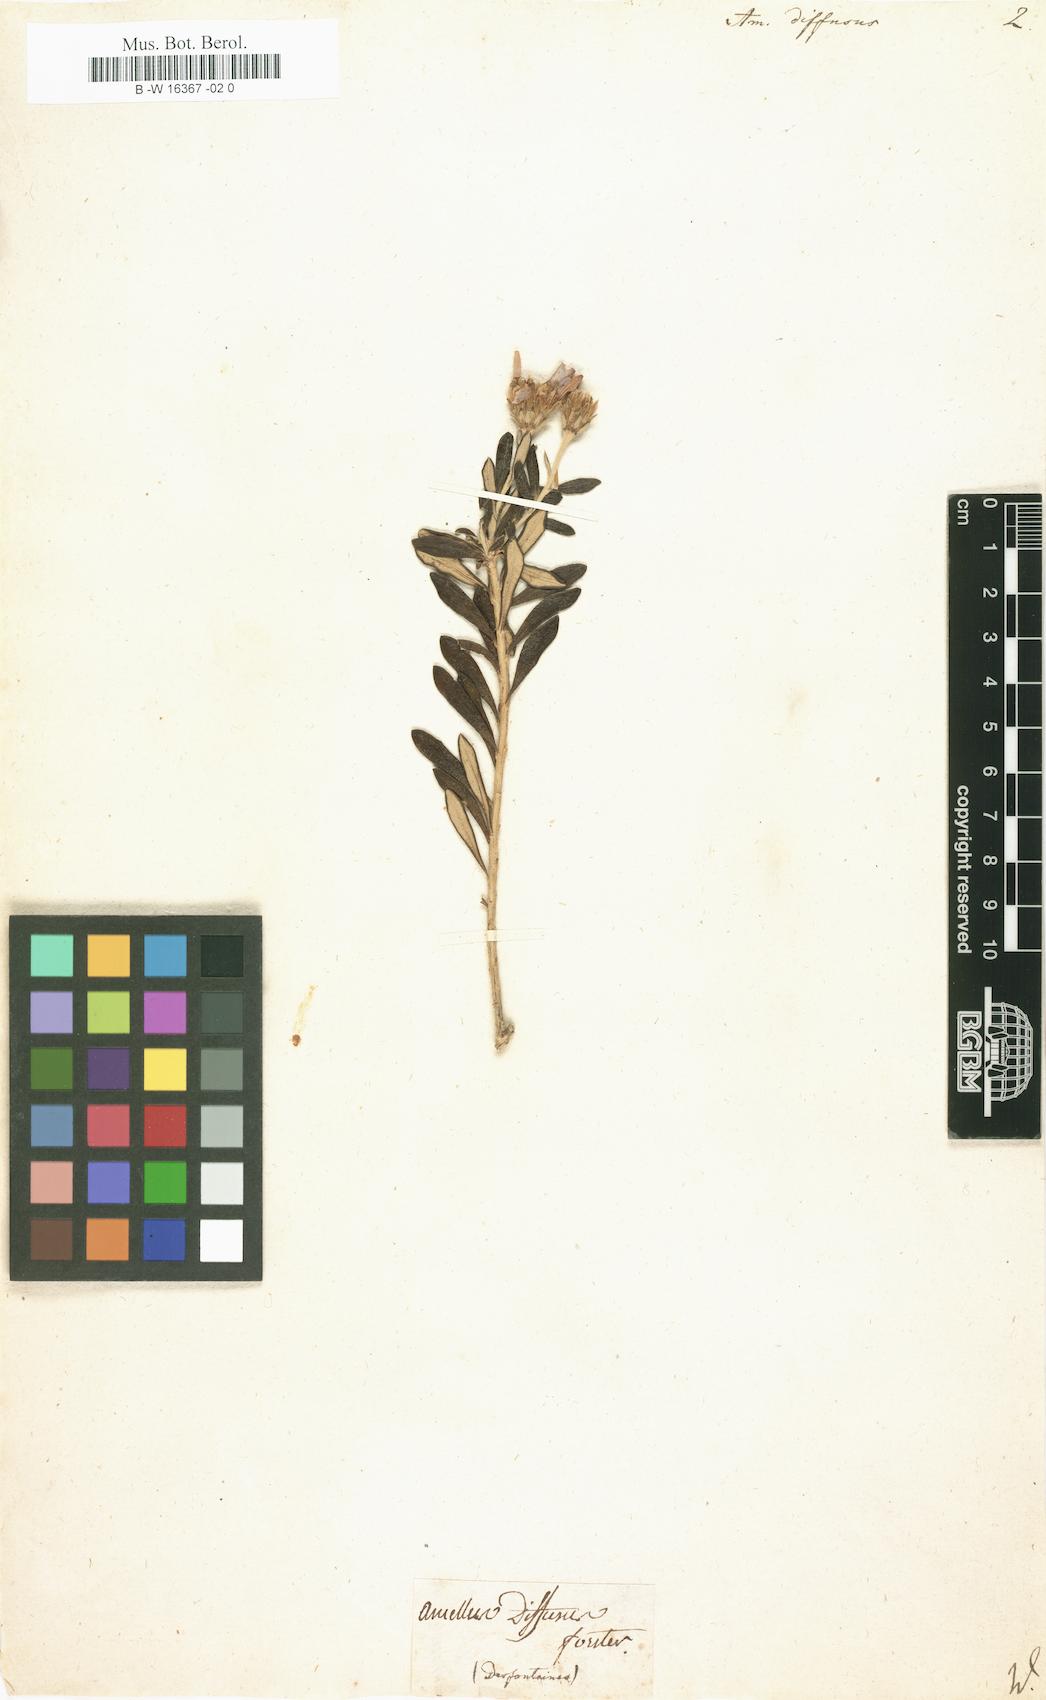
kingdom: Plantae
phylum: Tracheophyta
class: Magnoliopsida
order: Asterales
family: Asteraceae
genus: Chiliotrichum
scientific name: Chiliotrichum diffusum
